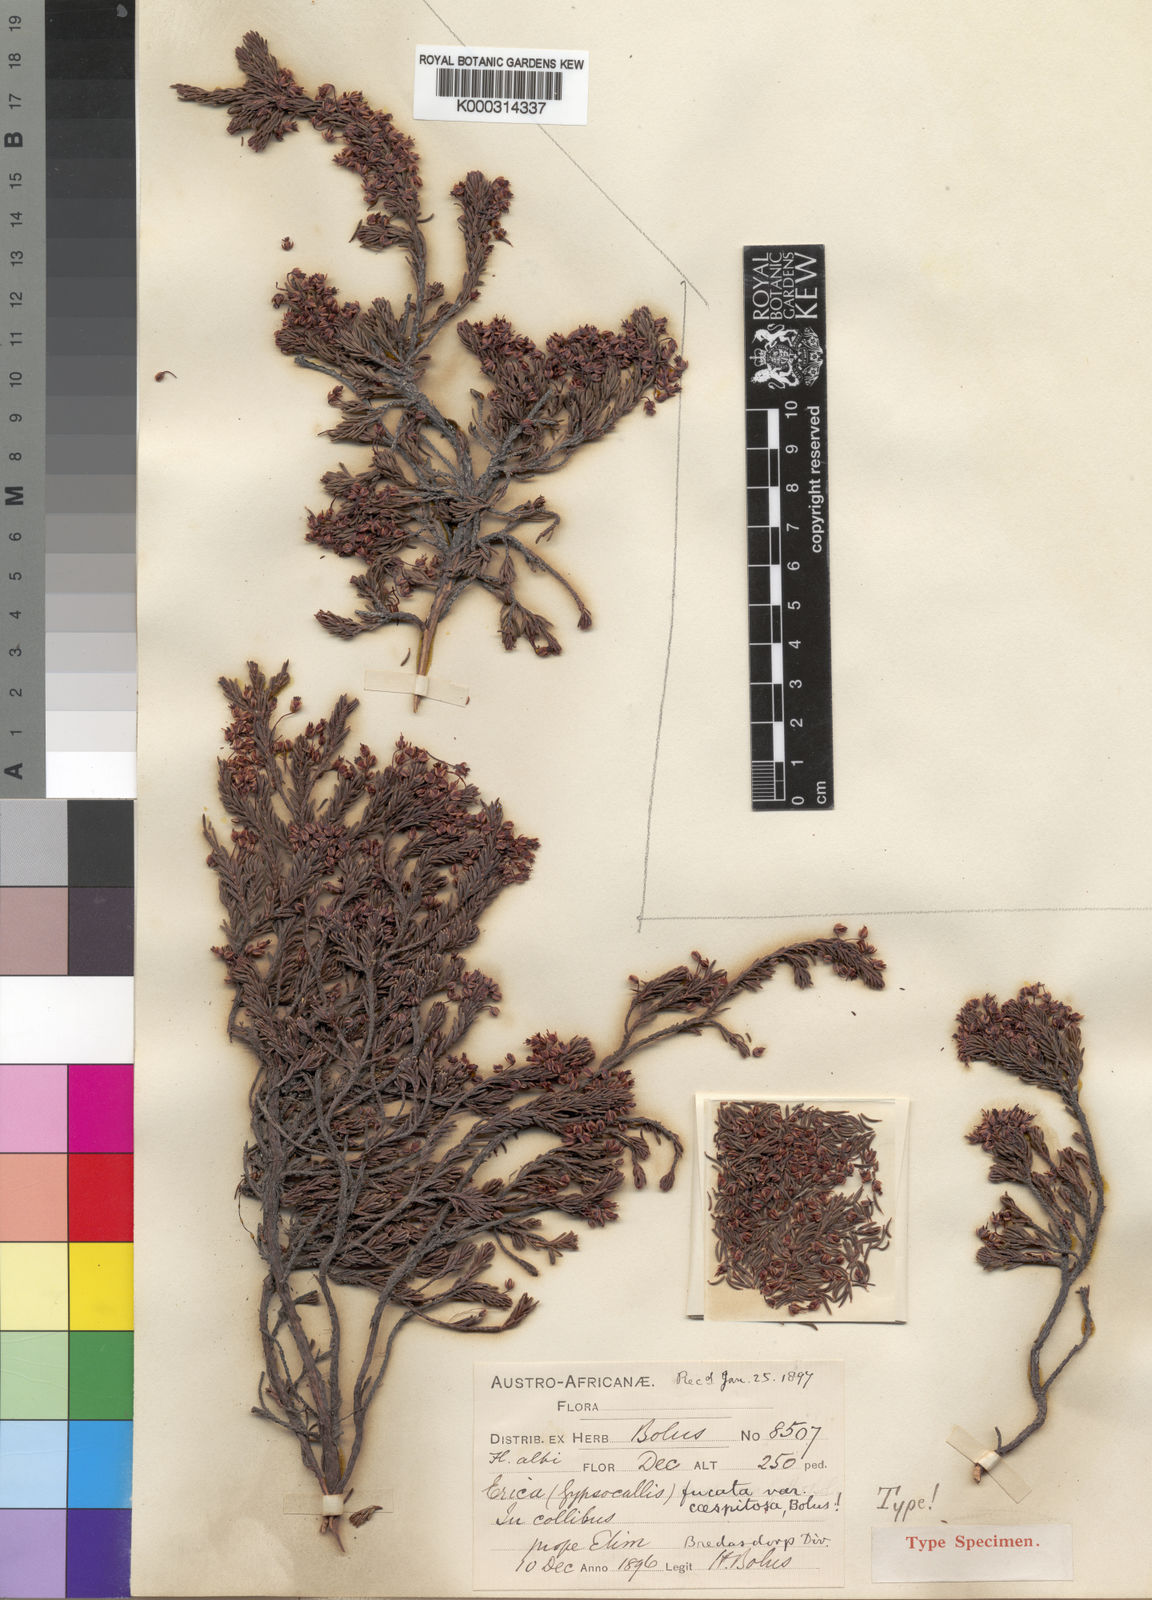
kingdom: Plantae
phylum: Tracheophyta
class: Magnoliopsida
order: Ericales
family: Ericaceae
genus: Erica
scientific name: Erica
